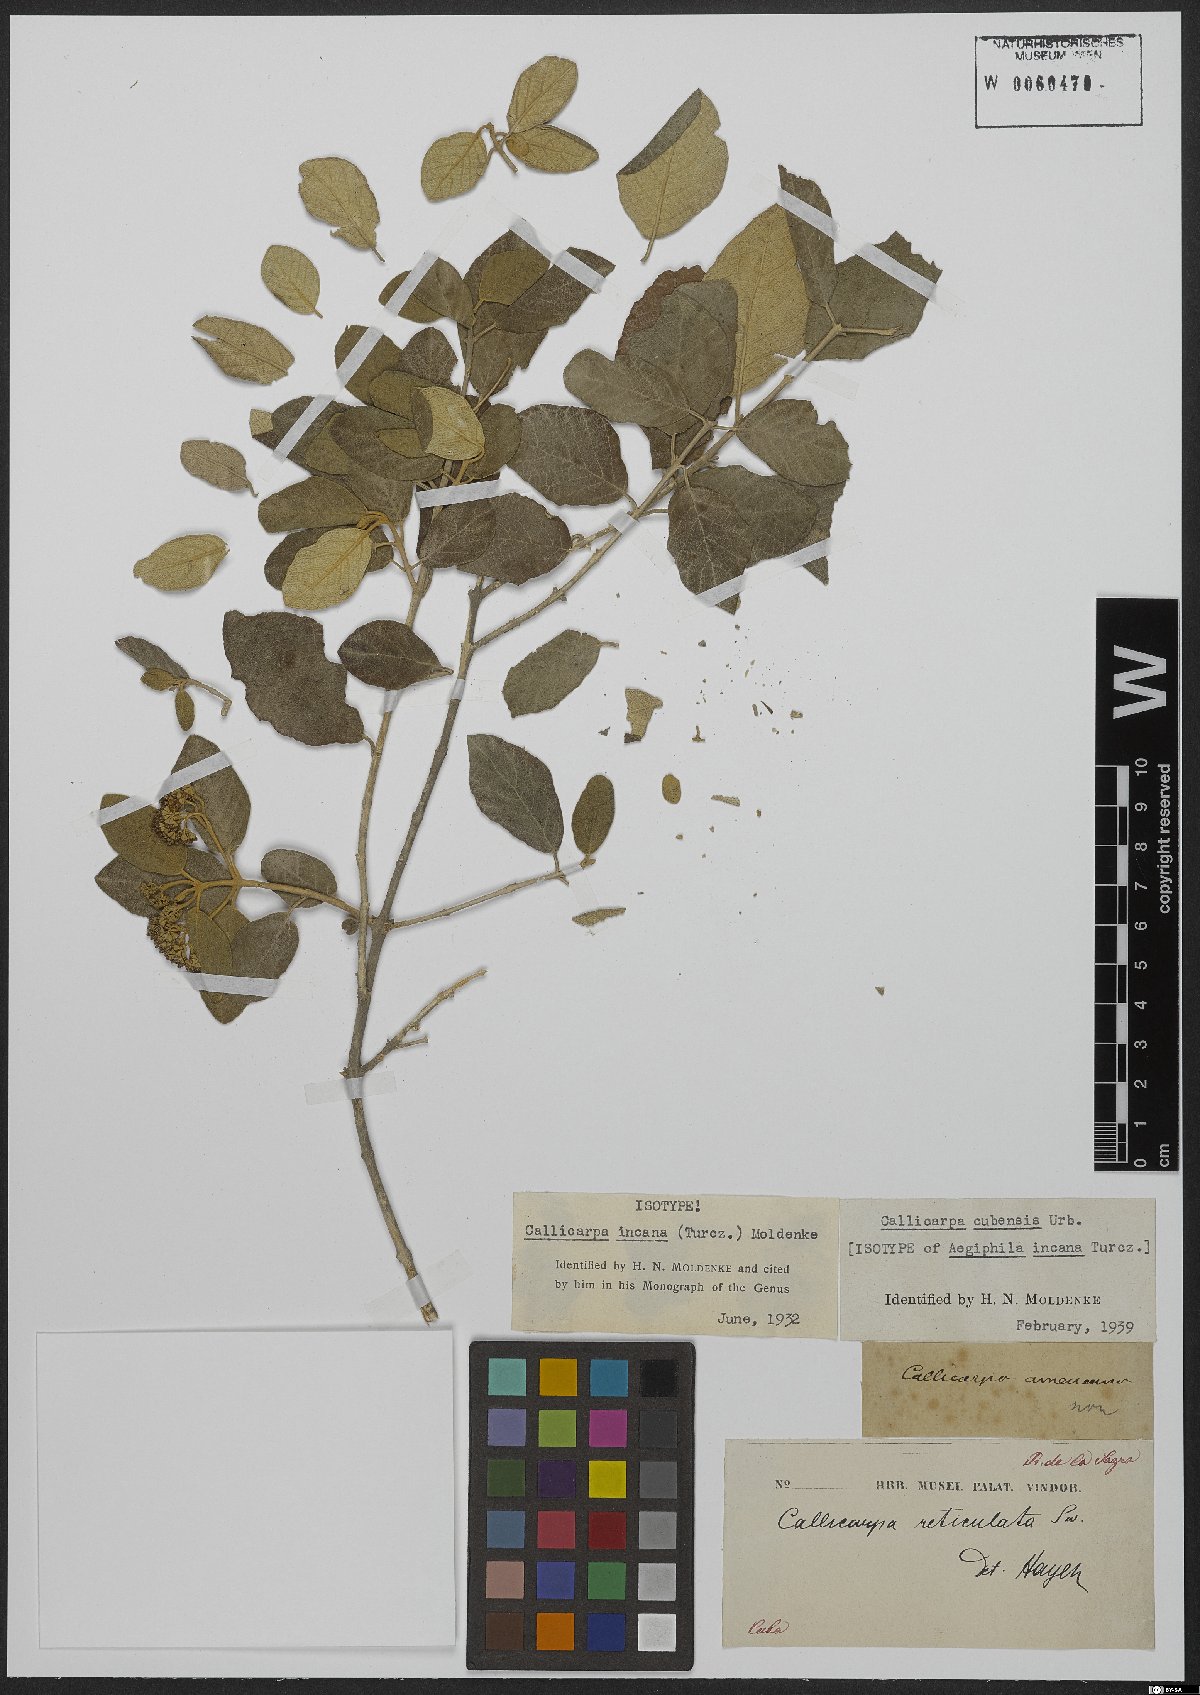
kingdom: Plantae
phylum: Tracheophyta
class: Magnoliopsida
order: Lamiales
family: Lamiaceae
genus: Callicarpa
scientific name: Callicarpa cubensis
